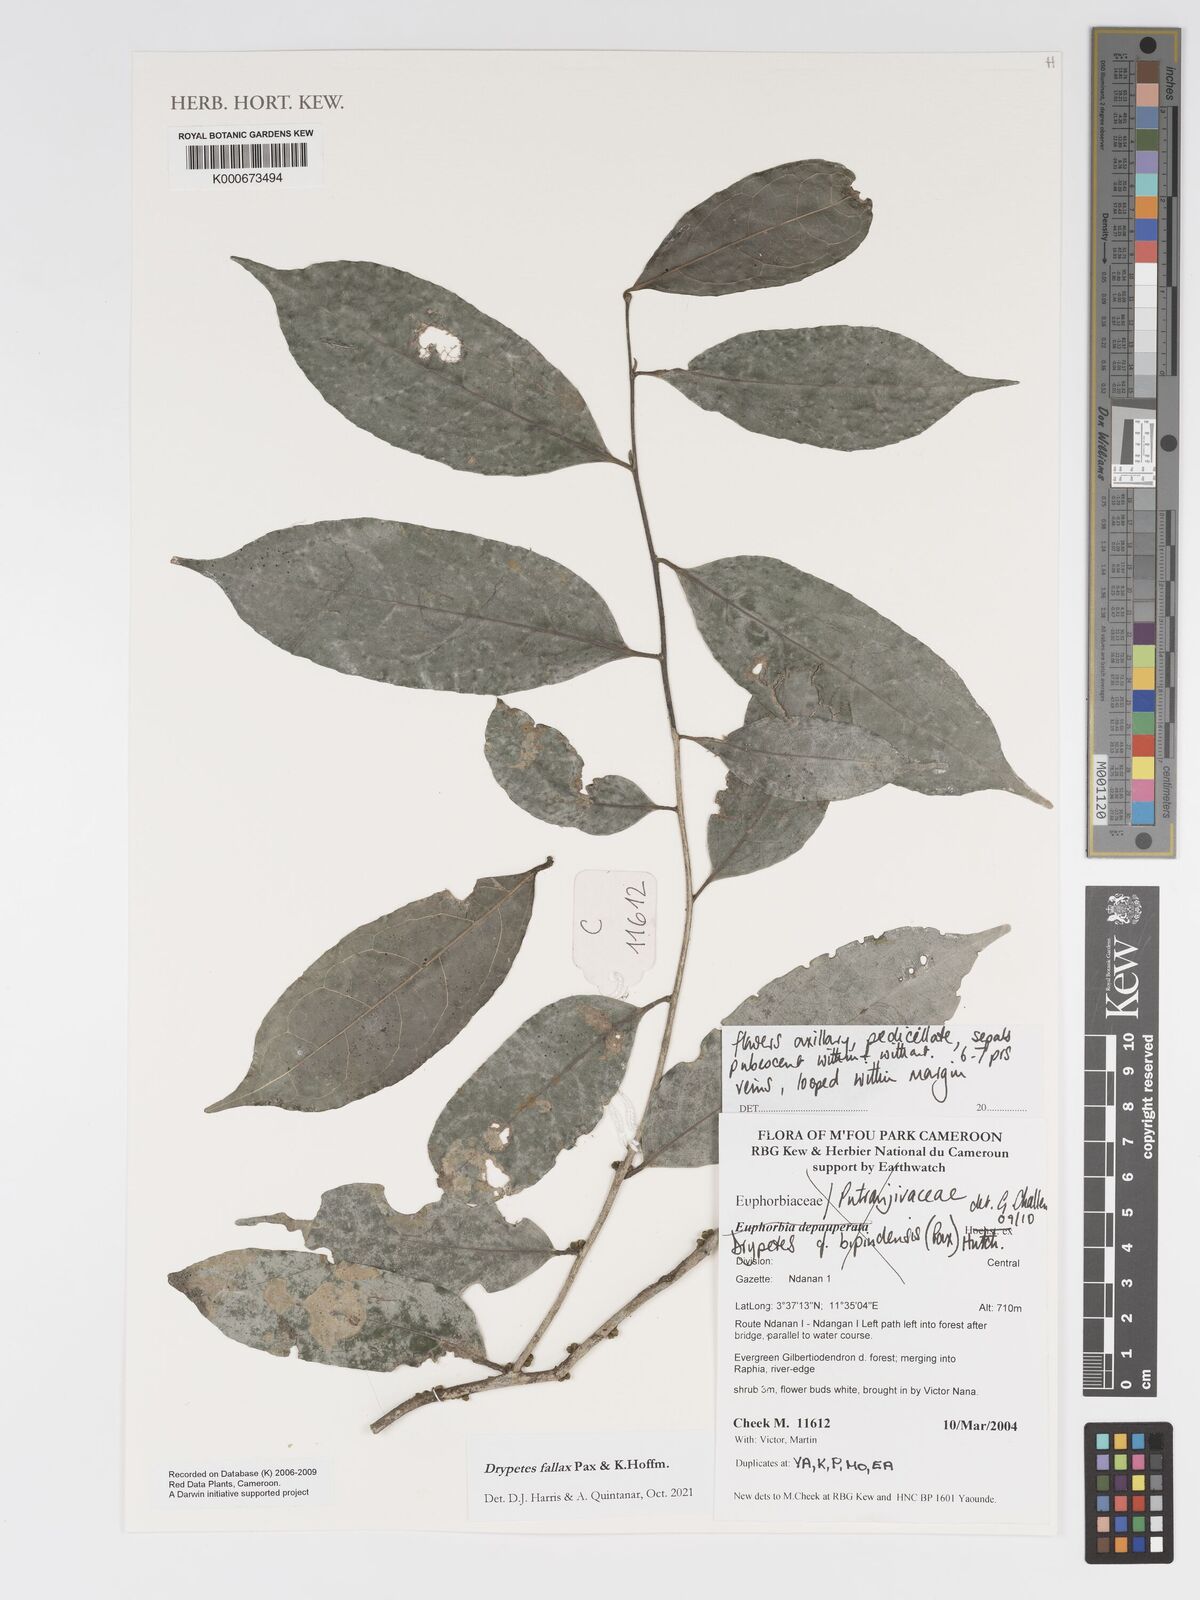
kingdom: Plantae
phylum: Tracheophyta
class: Magnoliopsida
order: Malpighiales
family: Putranjivaceae
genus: Drypetes
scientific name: Drypetes bipindensis
